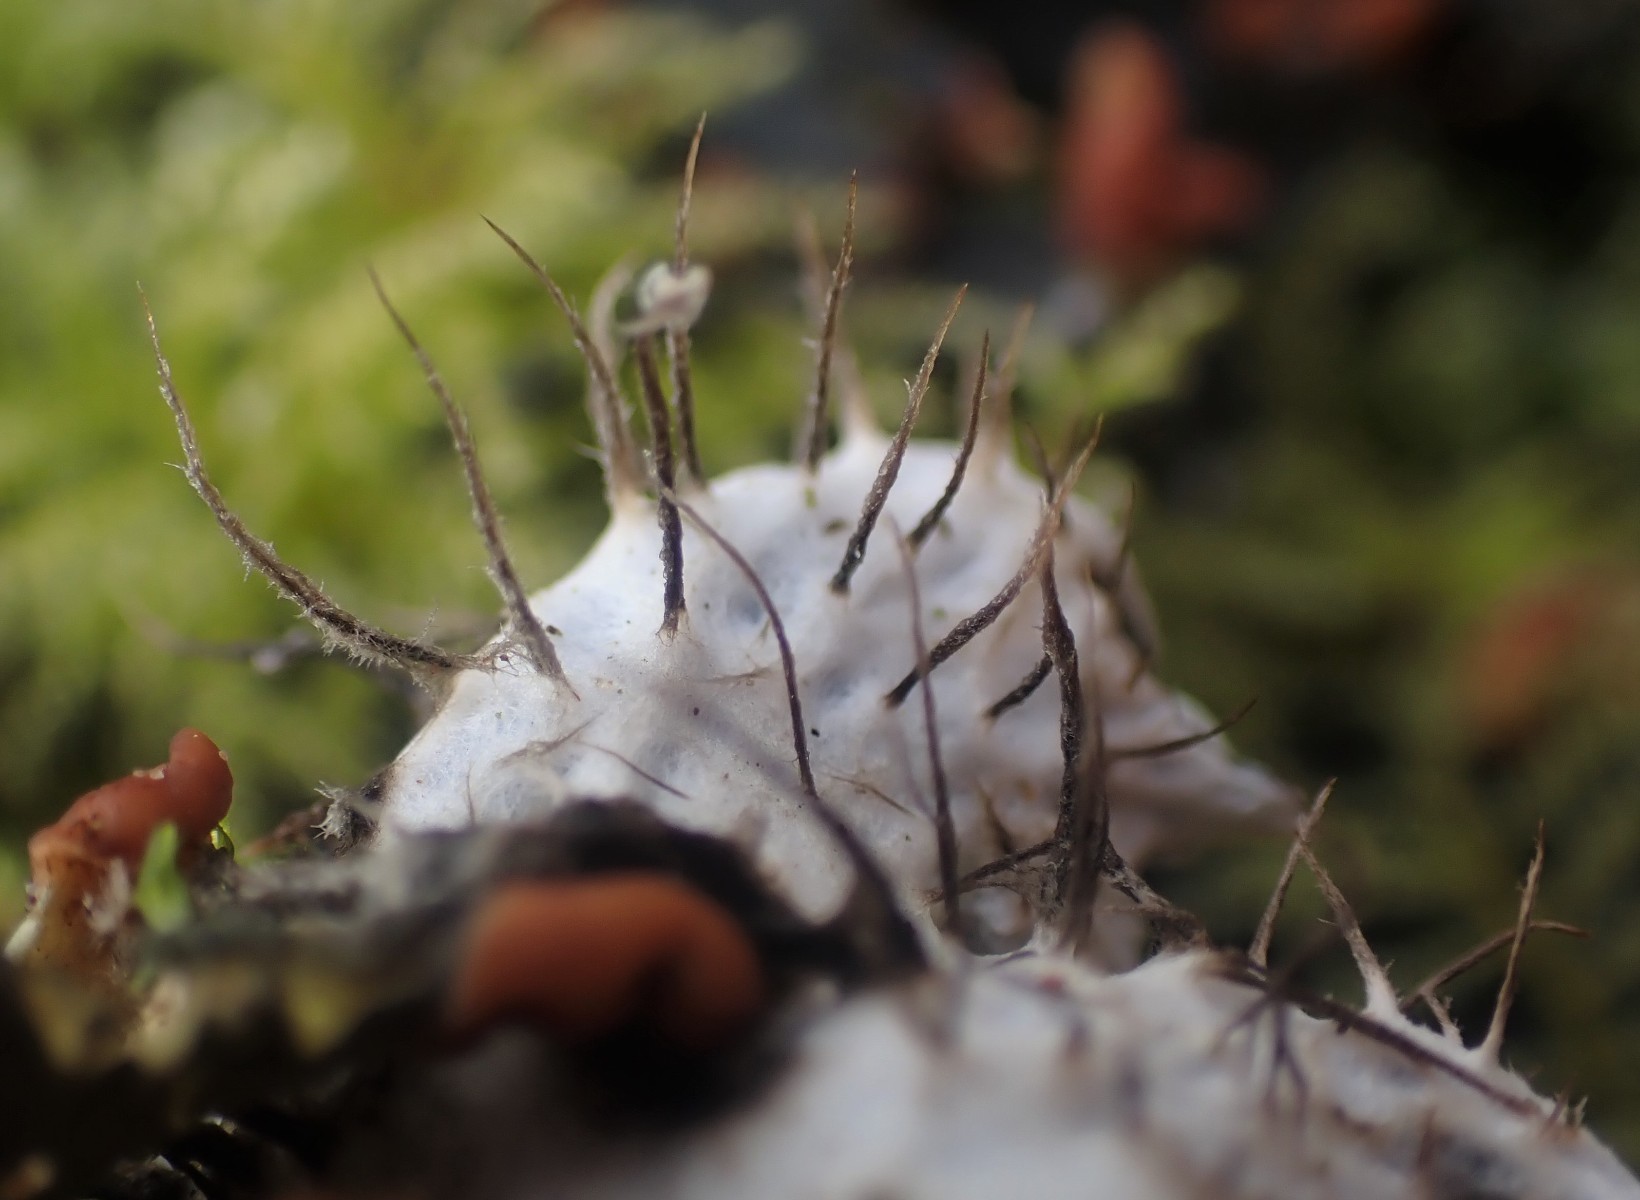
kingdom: Fungi
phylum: Ascomycota
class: Lecanoromycetes
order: Peltigerales
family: Peltigeraceae
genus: Peltigera
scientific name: Peltigera hymenina
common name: hinde-skjoldlav
